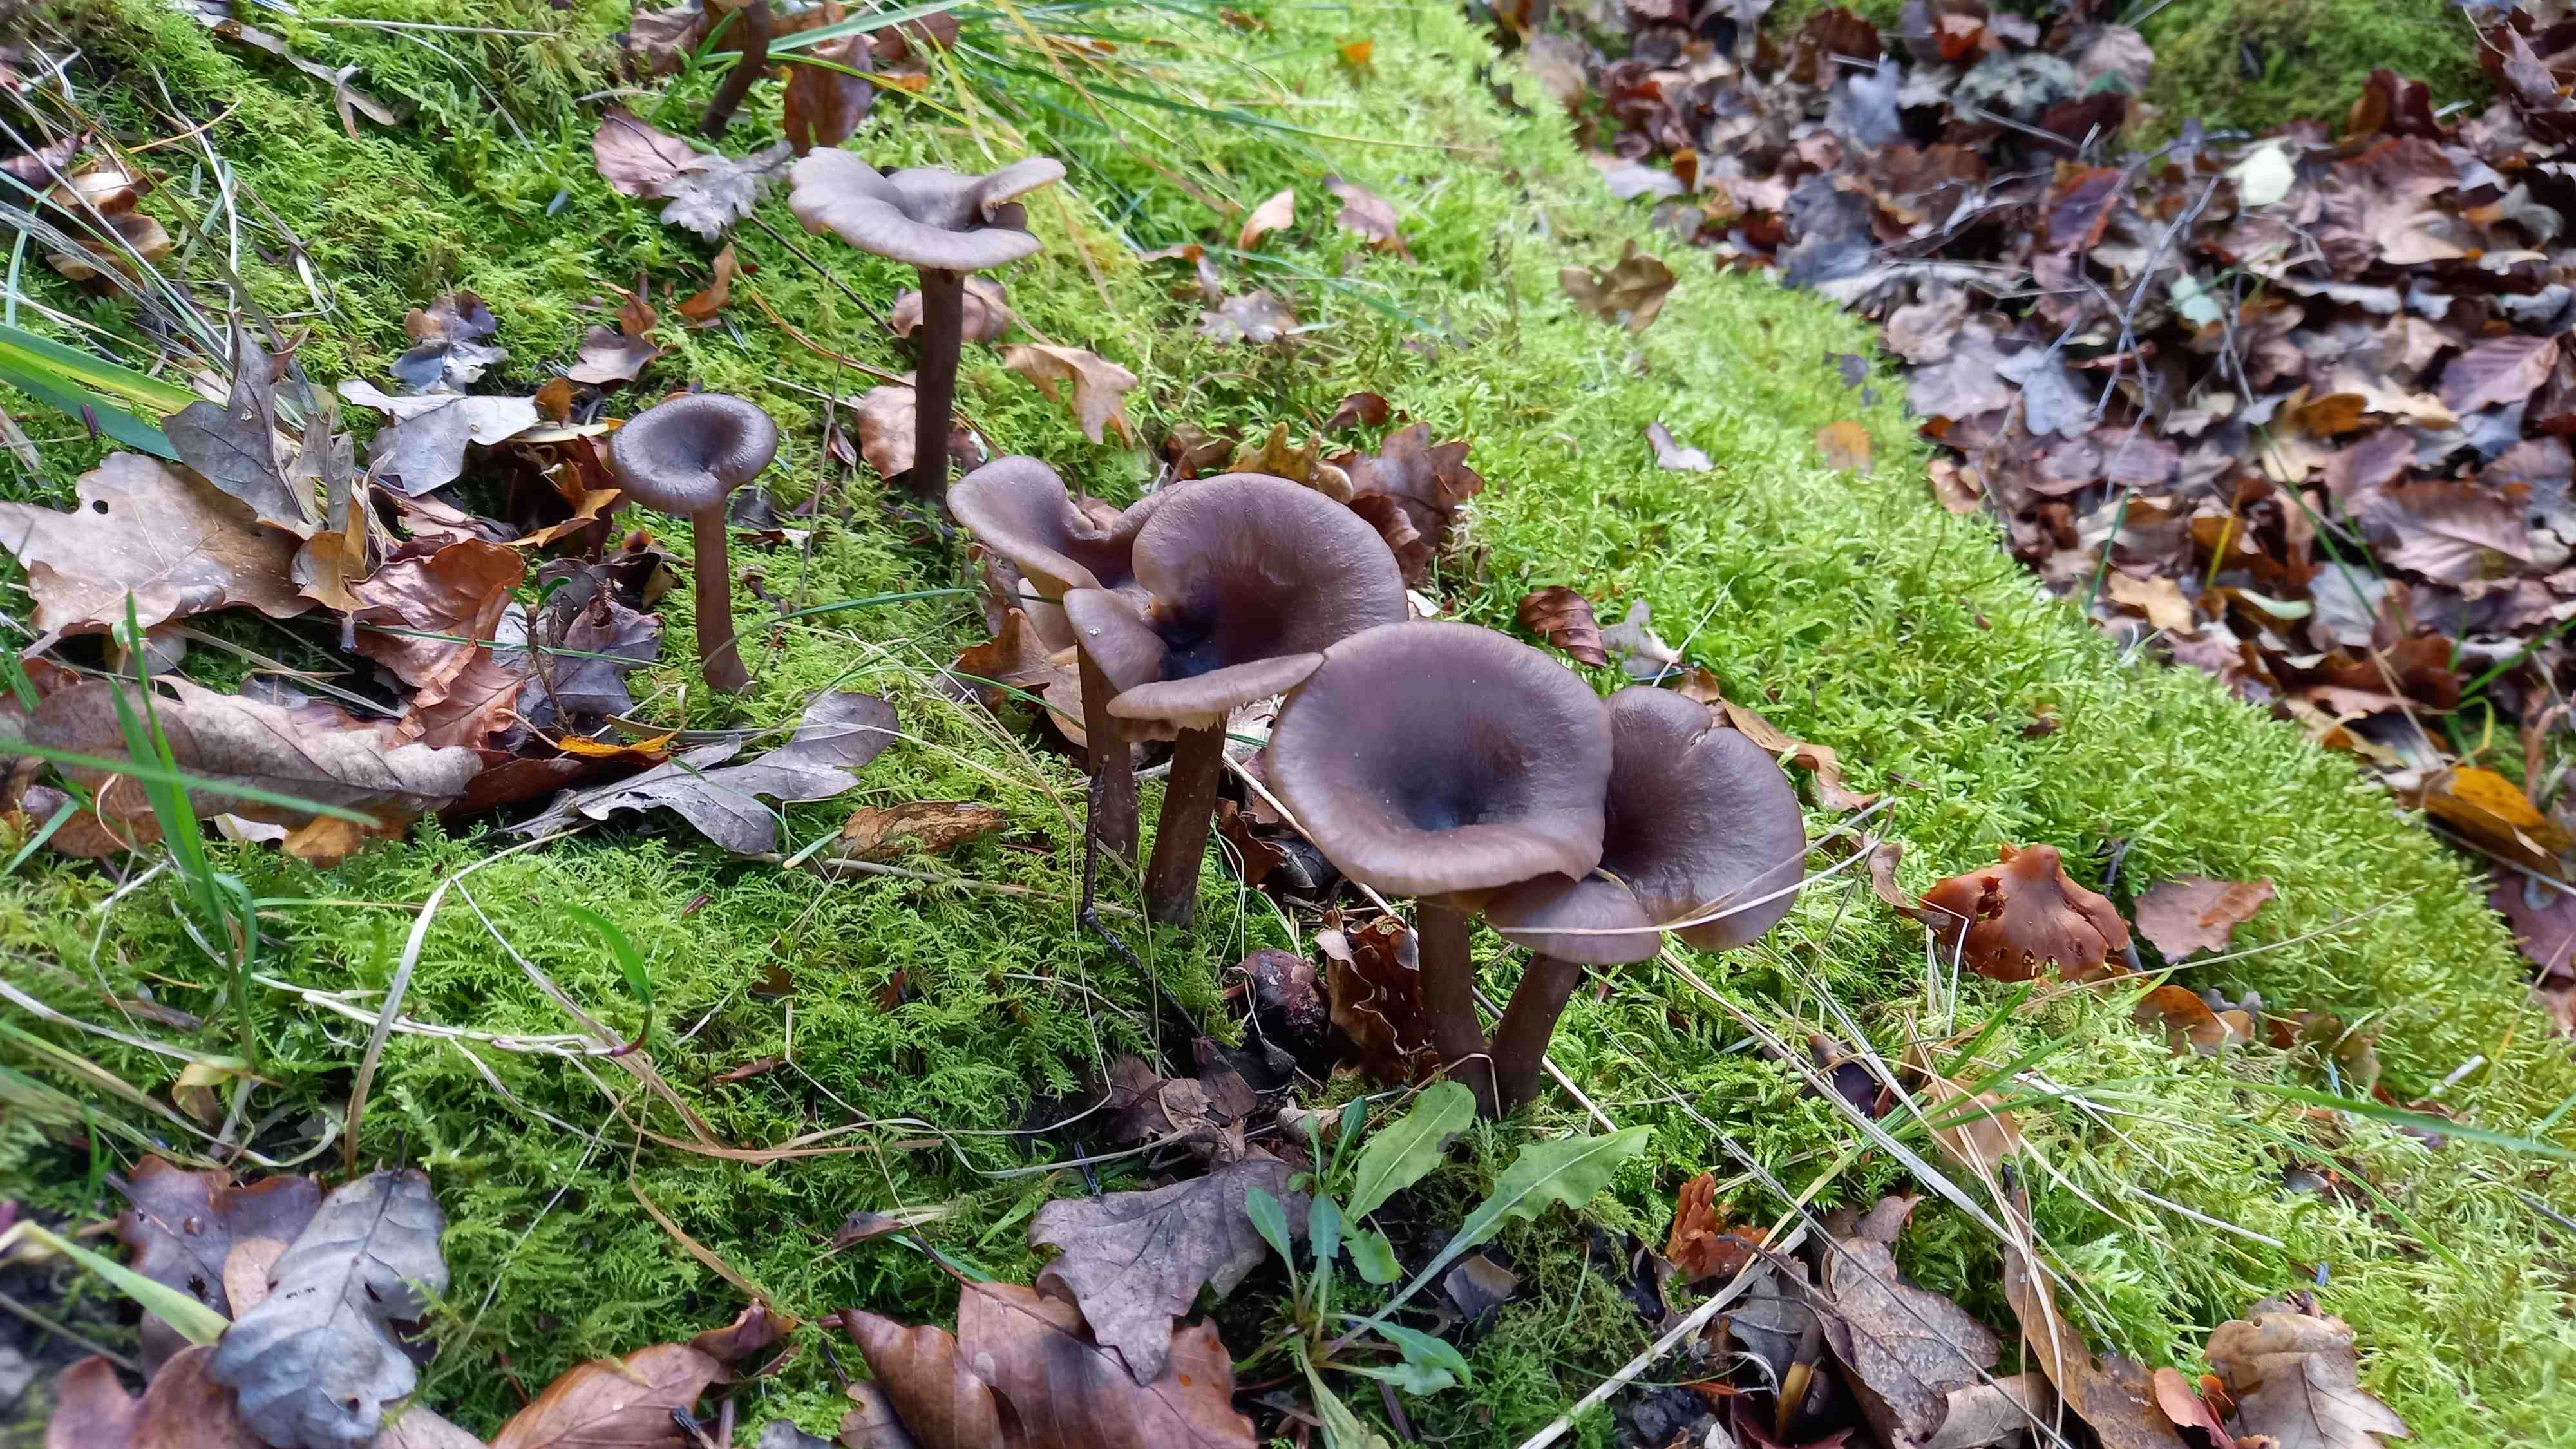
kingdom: Fungi
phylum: Basidiomycota
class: Agaricomycetes
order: Agaricales
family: Pseudoclitocybaceae
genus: Pseudoclitocybe
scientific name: Pseudoclitocybe cyathiformis
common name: almindelig bægertragthat
